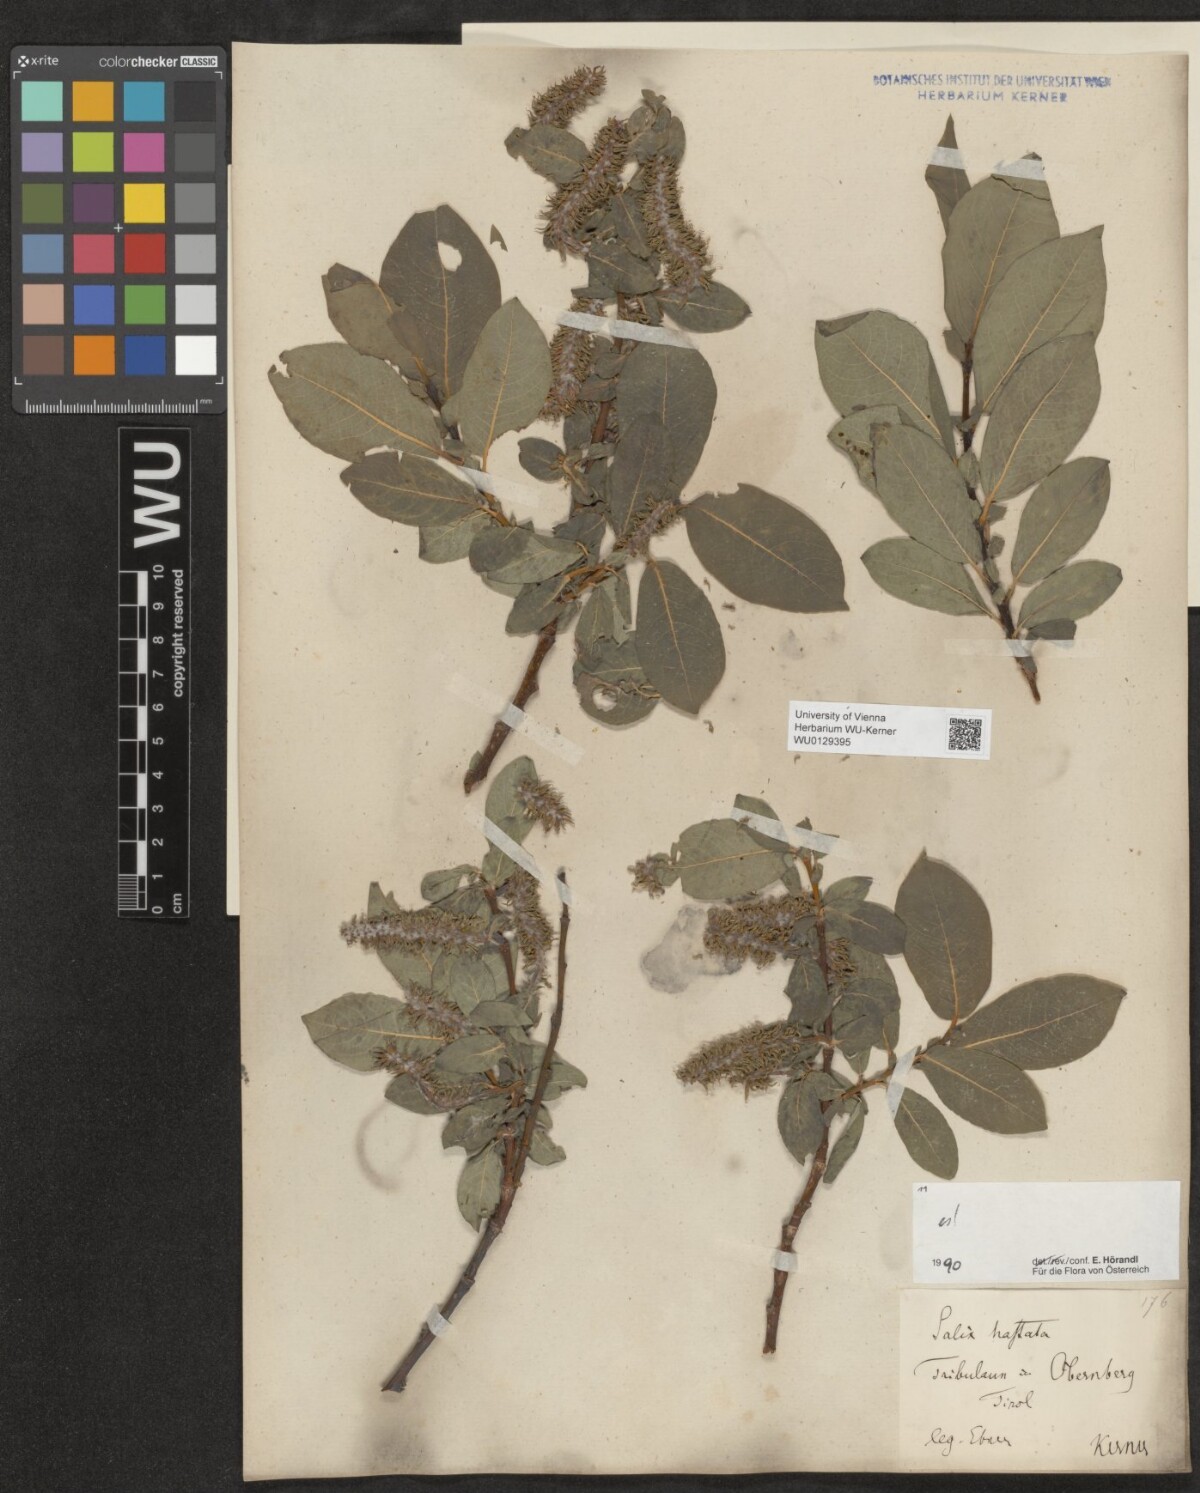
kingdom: Plantae
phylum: Tracheophyta
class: Magnoliopsida
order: Malpighiales
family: Salicaceae
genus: Salix
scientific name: Salix hastata
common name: Halberd willow
